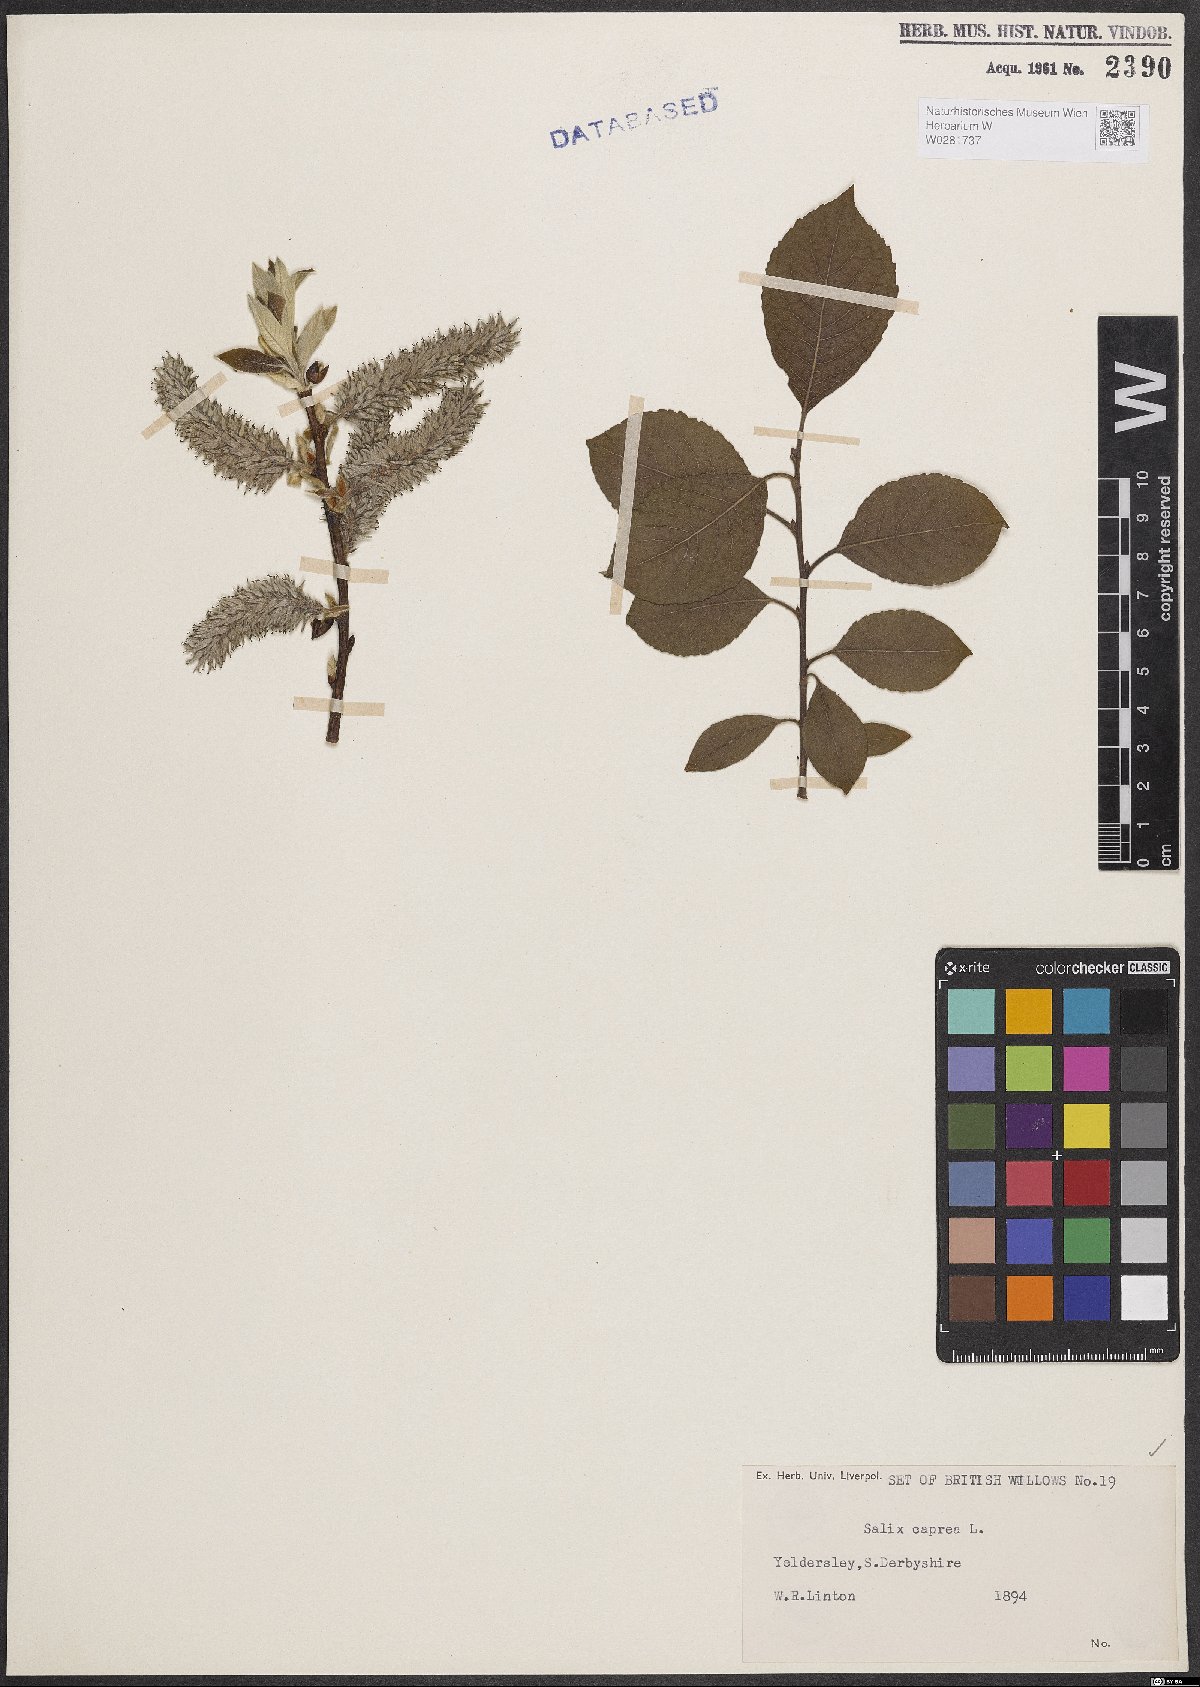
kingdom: Plantae
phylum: Tracheophyta
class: Magnoliopsida
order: Malpighiales
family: Salicaceae
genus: Salix
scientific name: Salix caprea
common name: Goat willow
